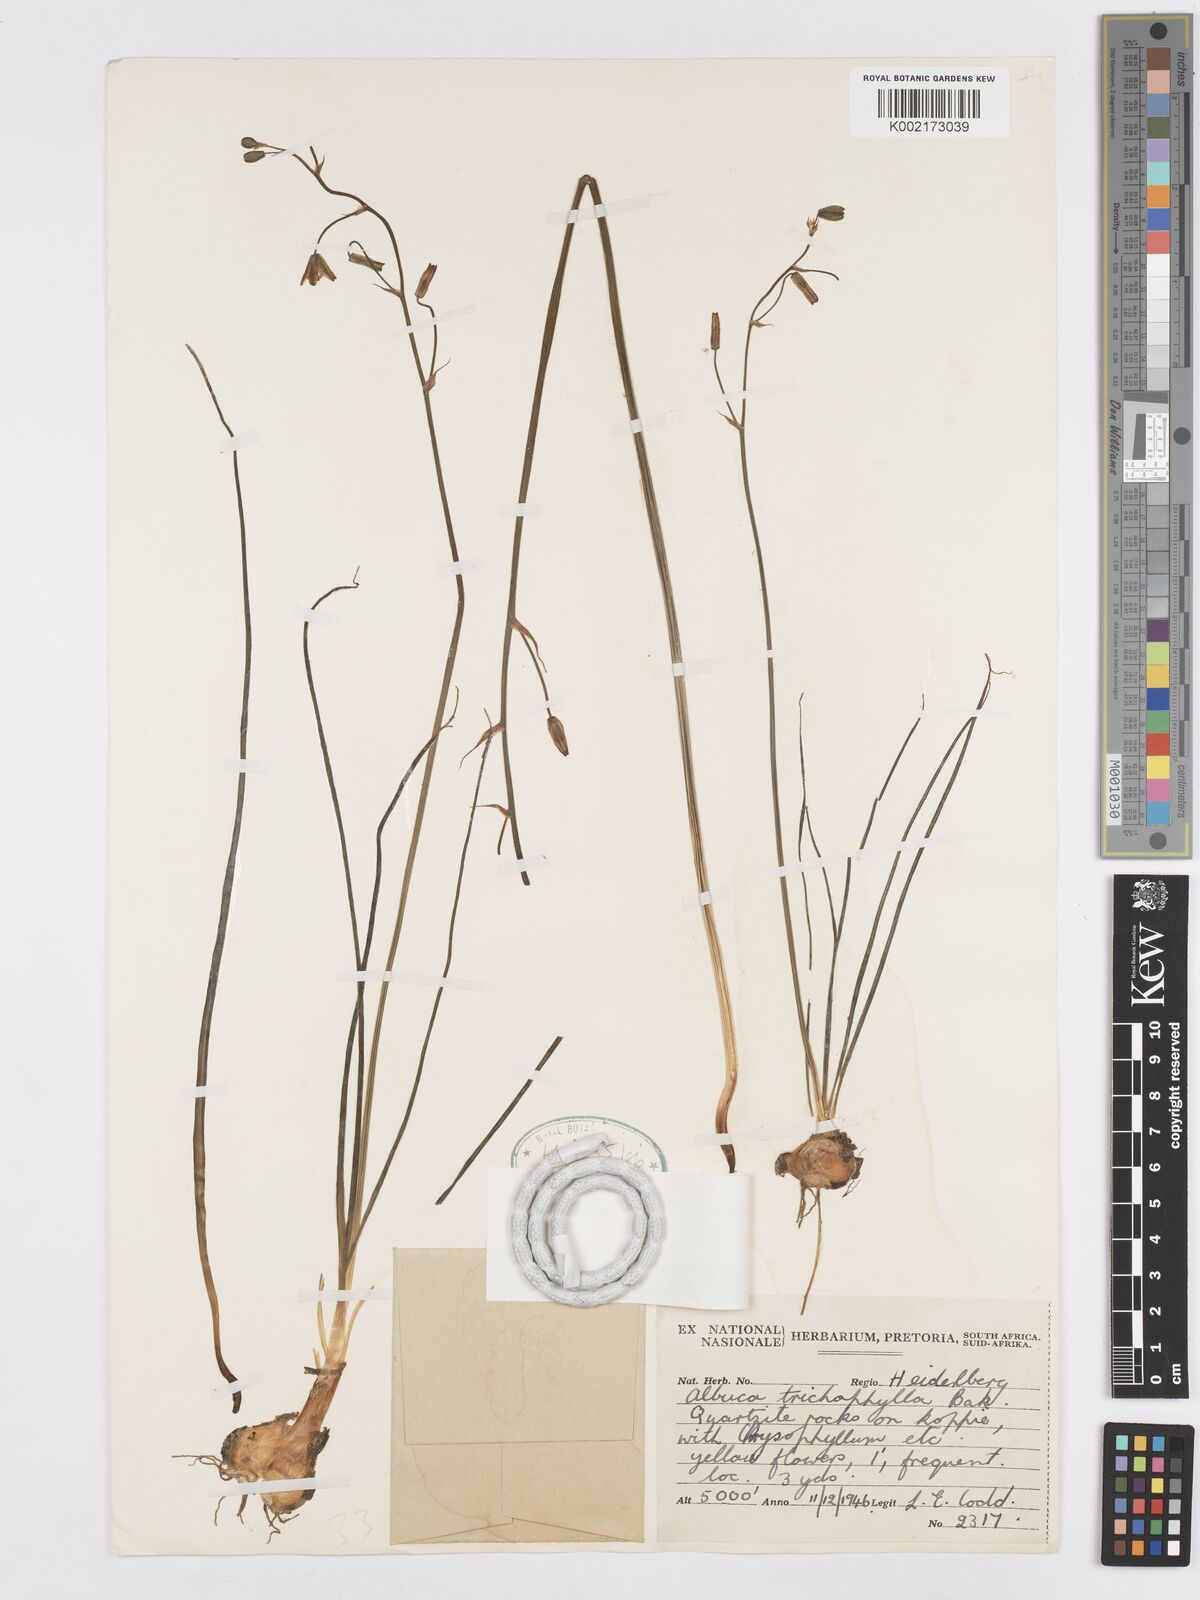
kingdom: Plantae
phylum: Tracheophyta
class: Liliopsida
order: Asparagales
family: Asparagaceae
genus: Albuca
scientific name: Albuca shawii
